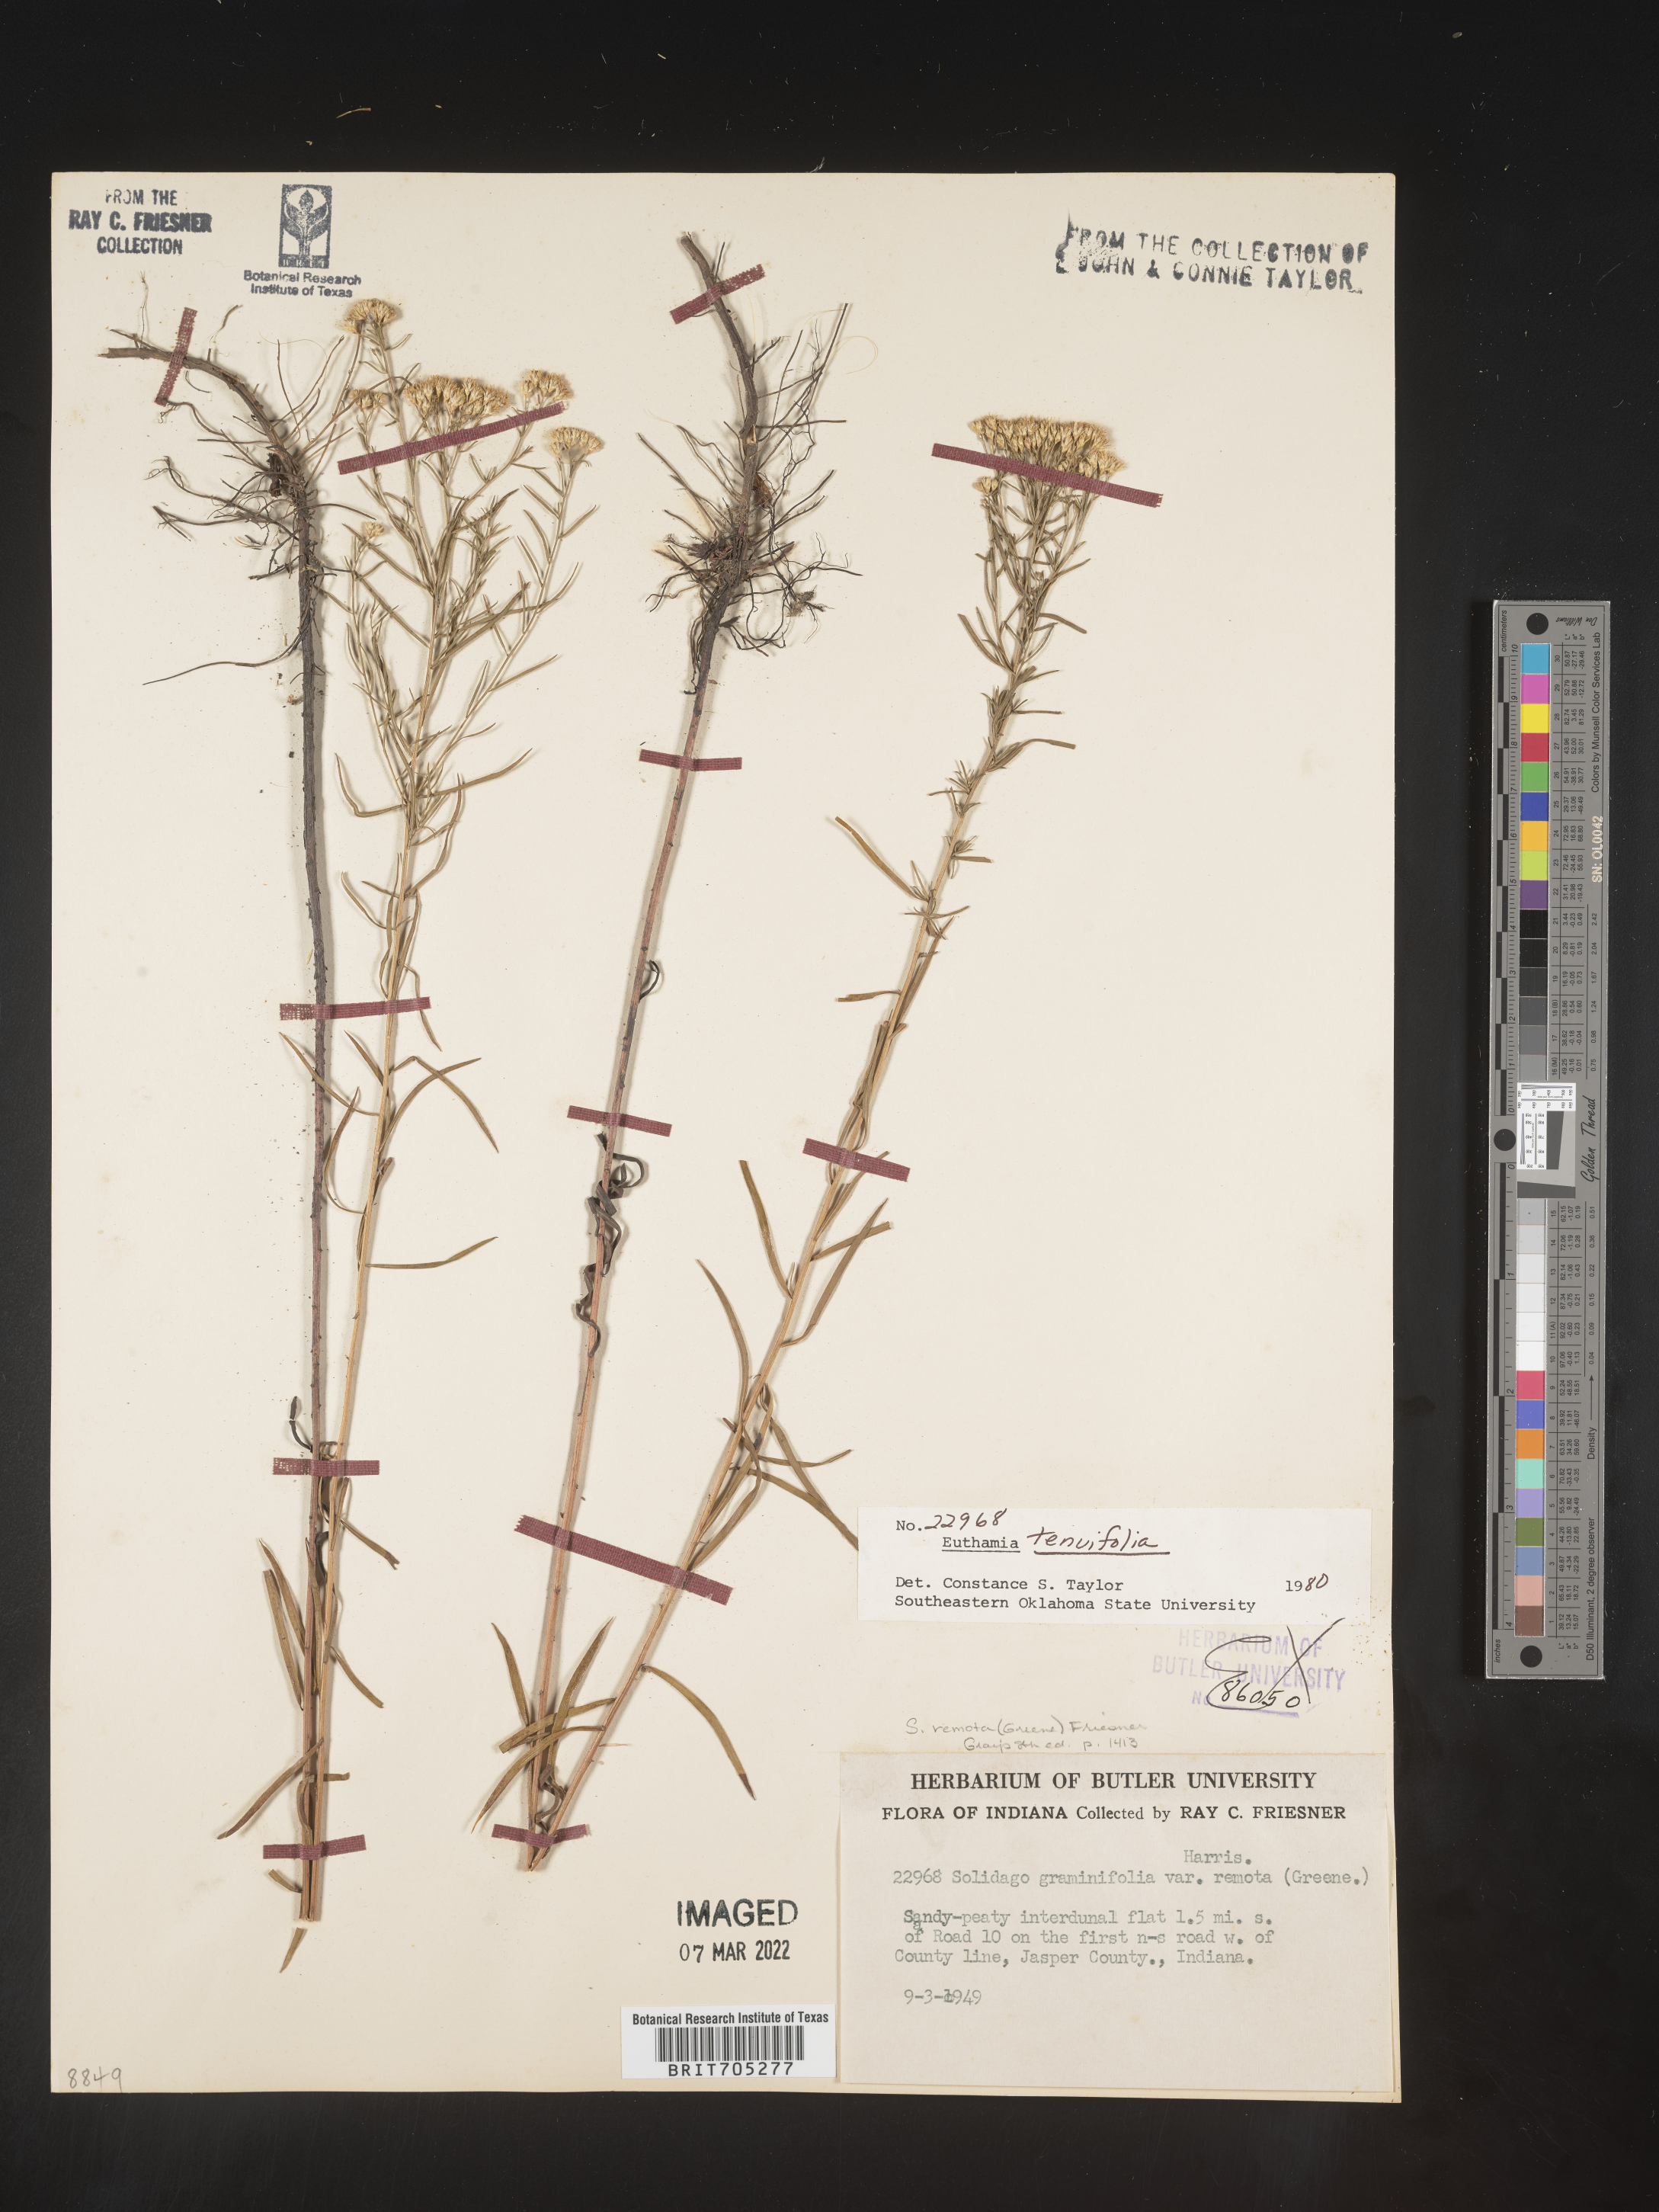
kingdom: Plantae
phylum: Tracheophyta
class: Magnoliopsida
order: Asterales
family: Asteraceae
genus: Euthamia
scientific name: Euthamia gymnospermoides
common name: Great plains goldentop
